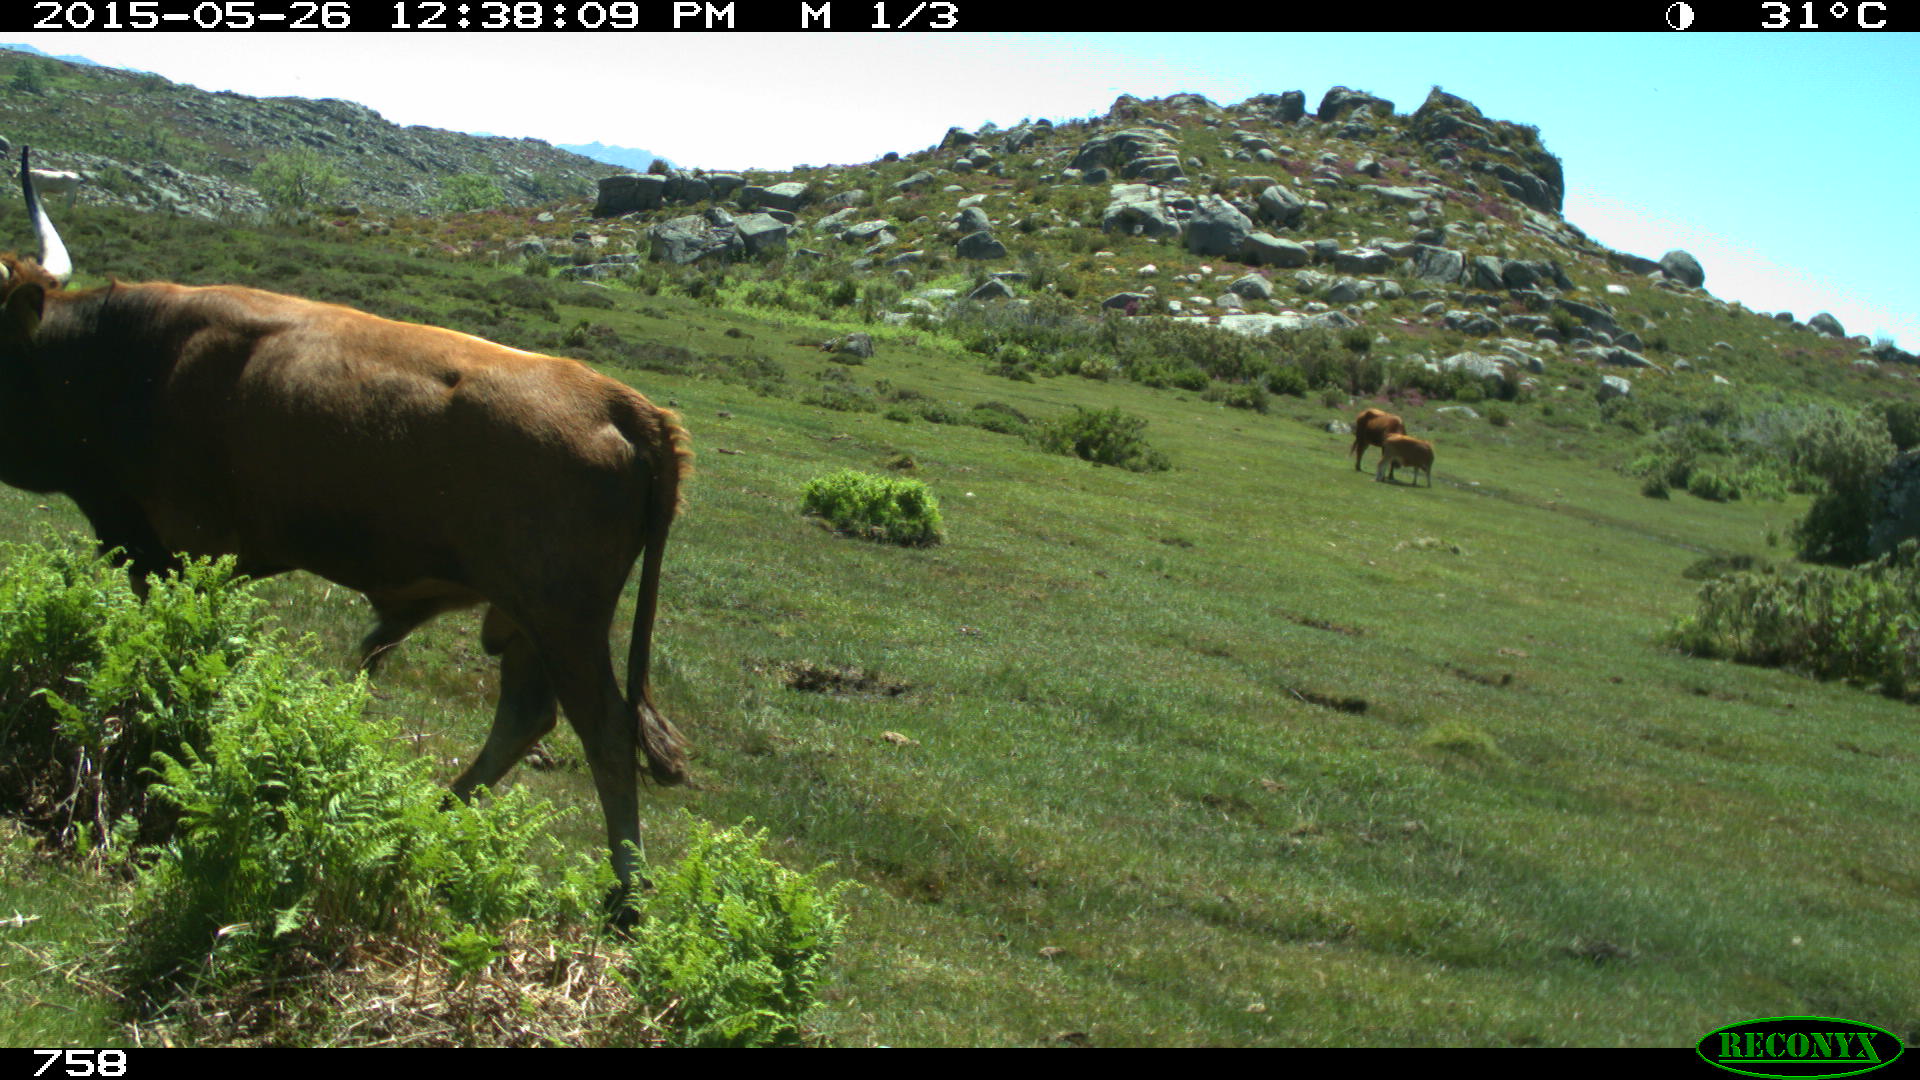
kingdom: Animalia
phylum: Chordata
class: Mammalia
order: Artiodactyla
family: Bovidae
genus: Bos
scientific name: Bos taurus
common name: Domesticated cattle
